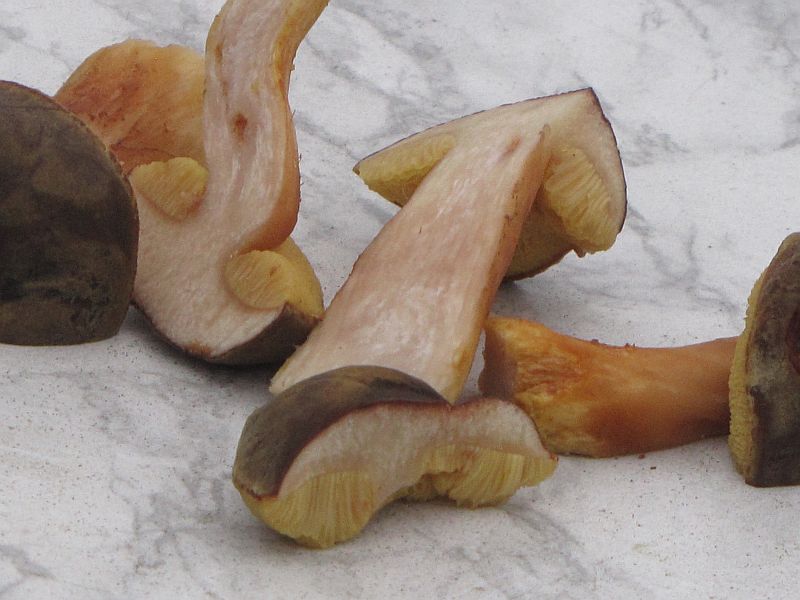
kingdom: Fungi
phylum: Basidiomycota
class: Agaricomycetes
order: Boletales
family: Boletaceae
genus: Xerocomus
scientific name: Xerocomus ferrugineus
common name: vaskeskinds-rørhat
